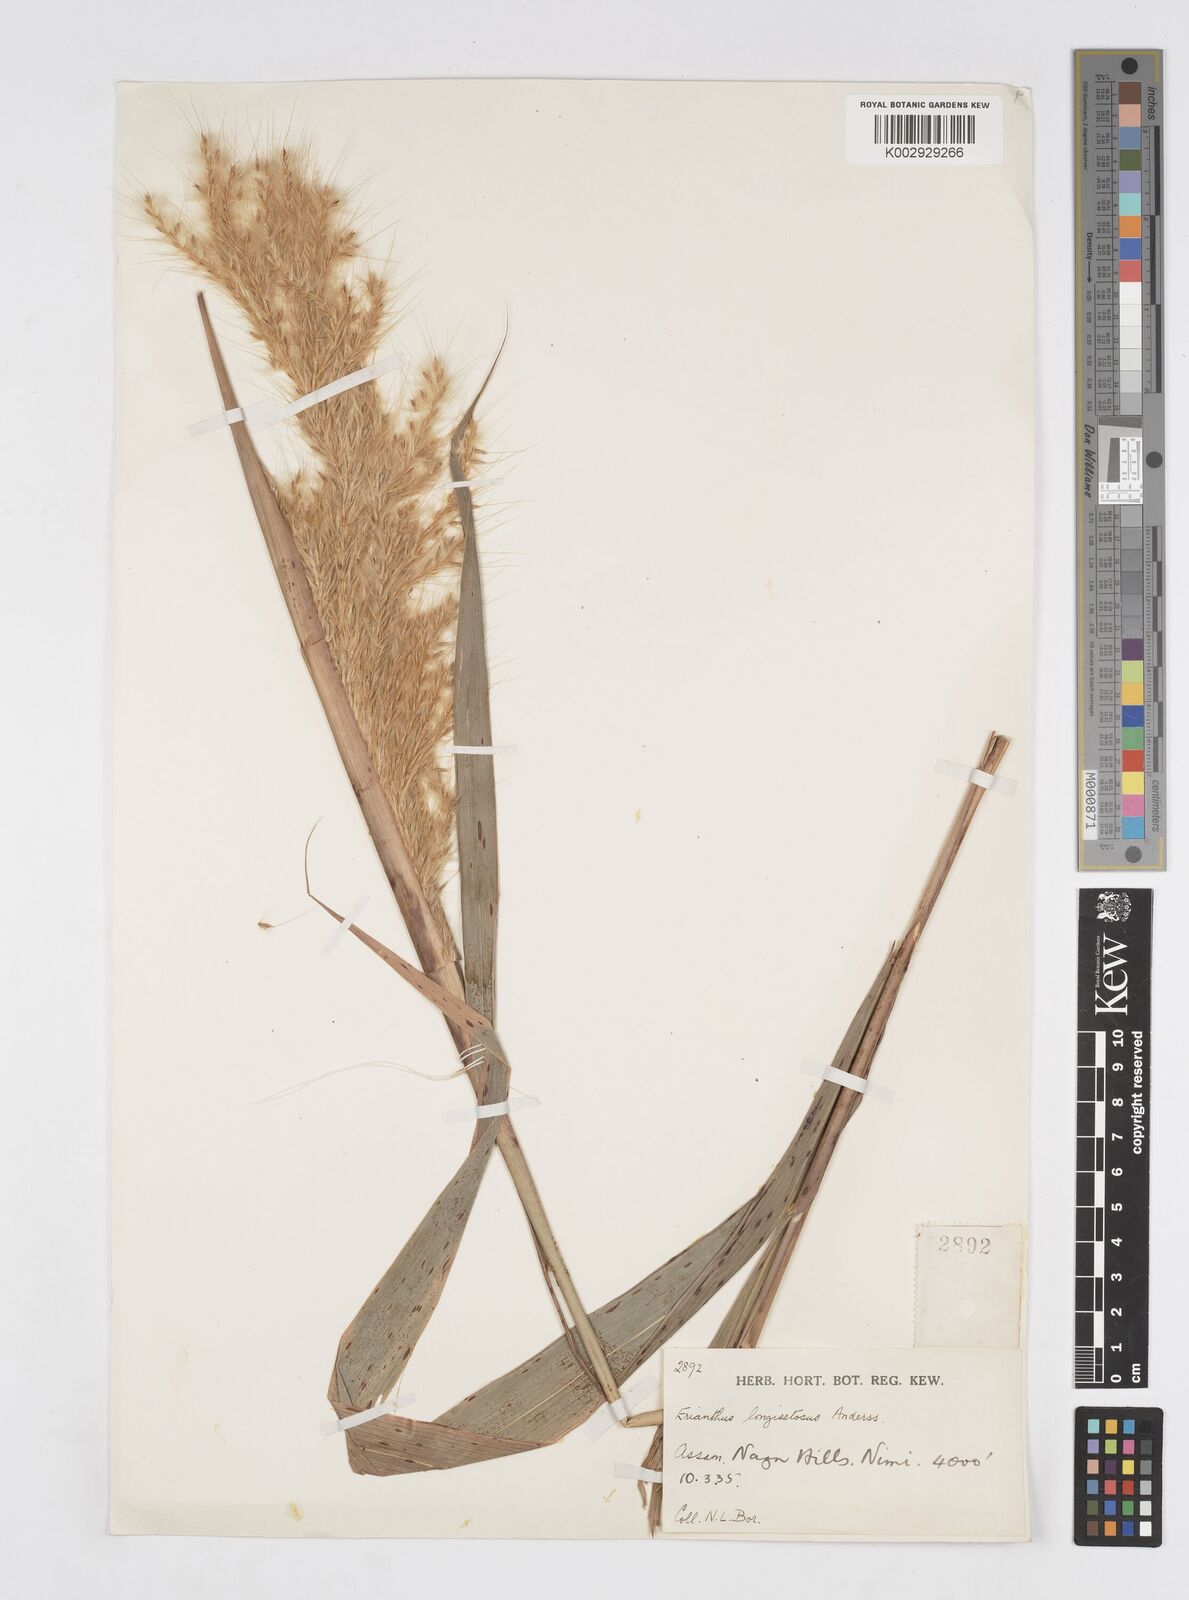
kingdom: Plantae
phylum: Tracheophyta
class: Liliopsida
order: Poales
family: Poaceae
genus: Saccharum
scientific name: Saccharum longesetosum
